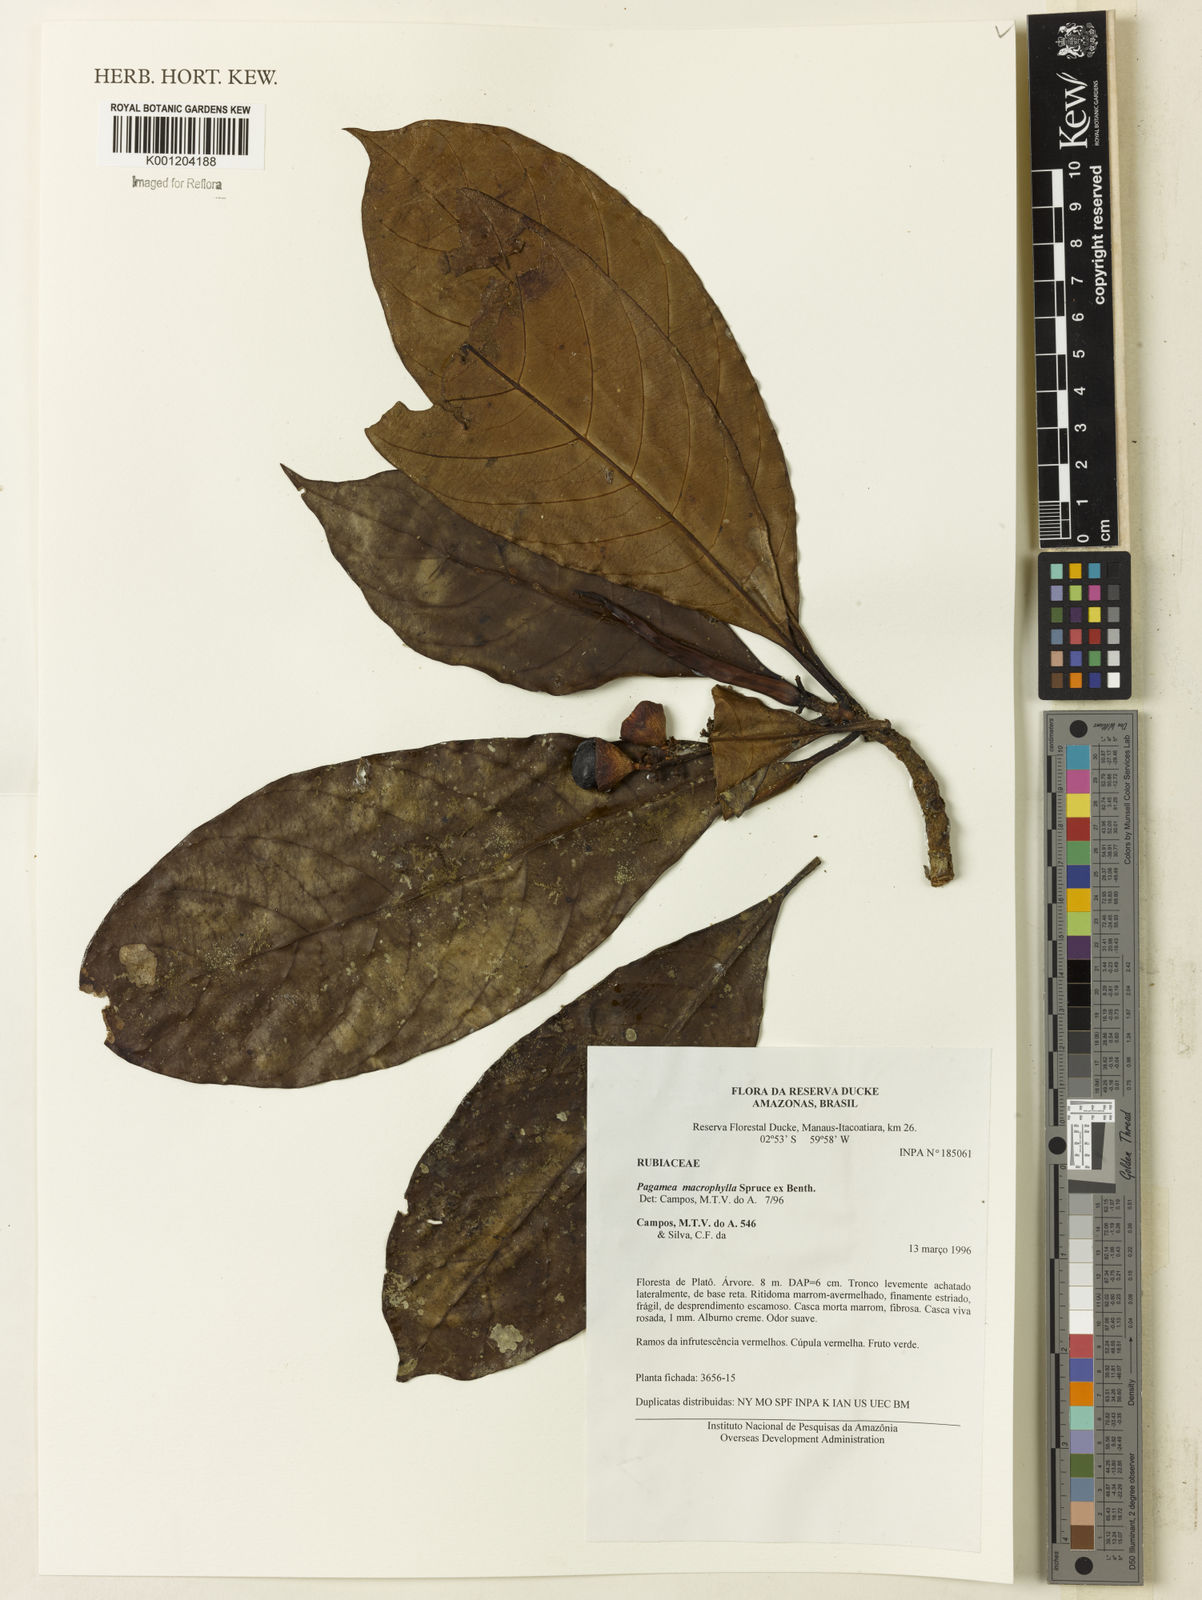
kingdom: Plantae
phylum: Tracheophyta
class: Magnoliopsida
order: Gentianales
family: Rubiaceae
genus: Pagamea
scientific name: Pagamea macrophylla
